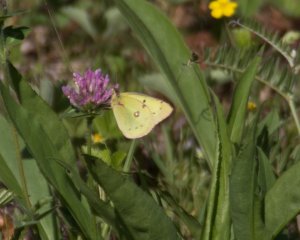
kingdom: Animalia
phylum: Arthropoda
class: Insecta
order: Lepidoptera
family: Pieridae
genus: Colias
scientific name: Colias philodice
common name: Clouded Sulphur
